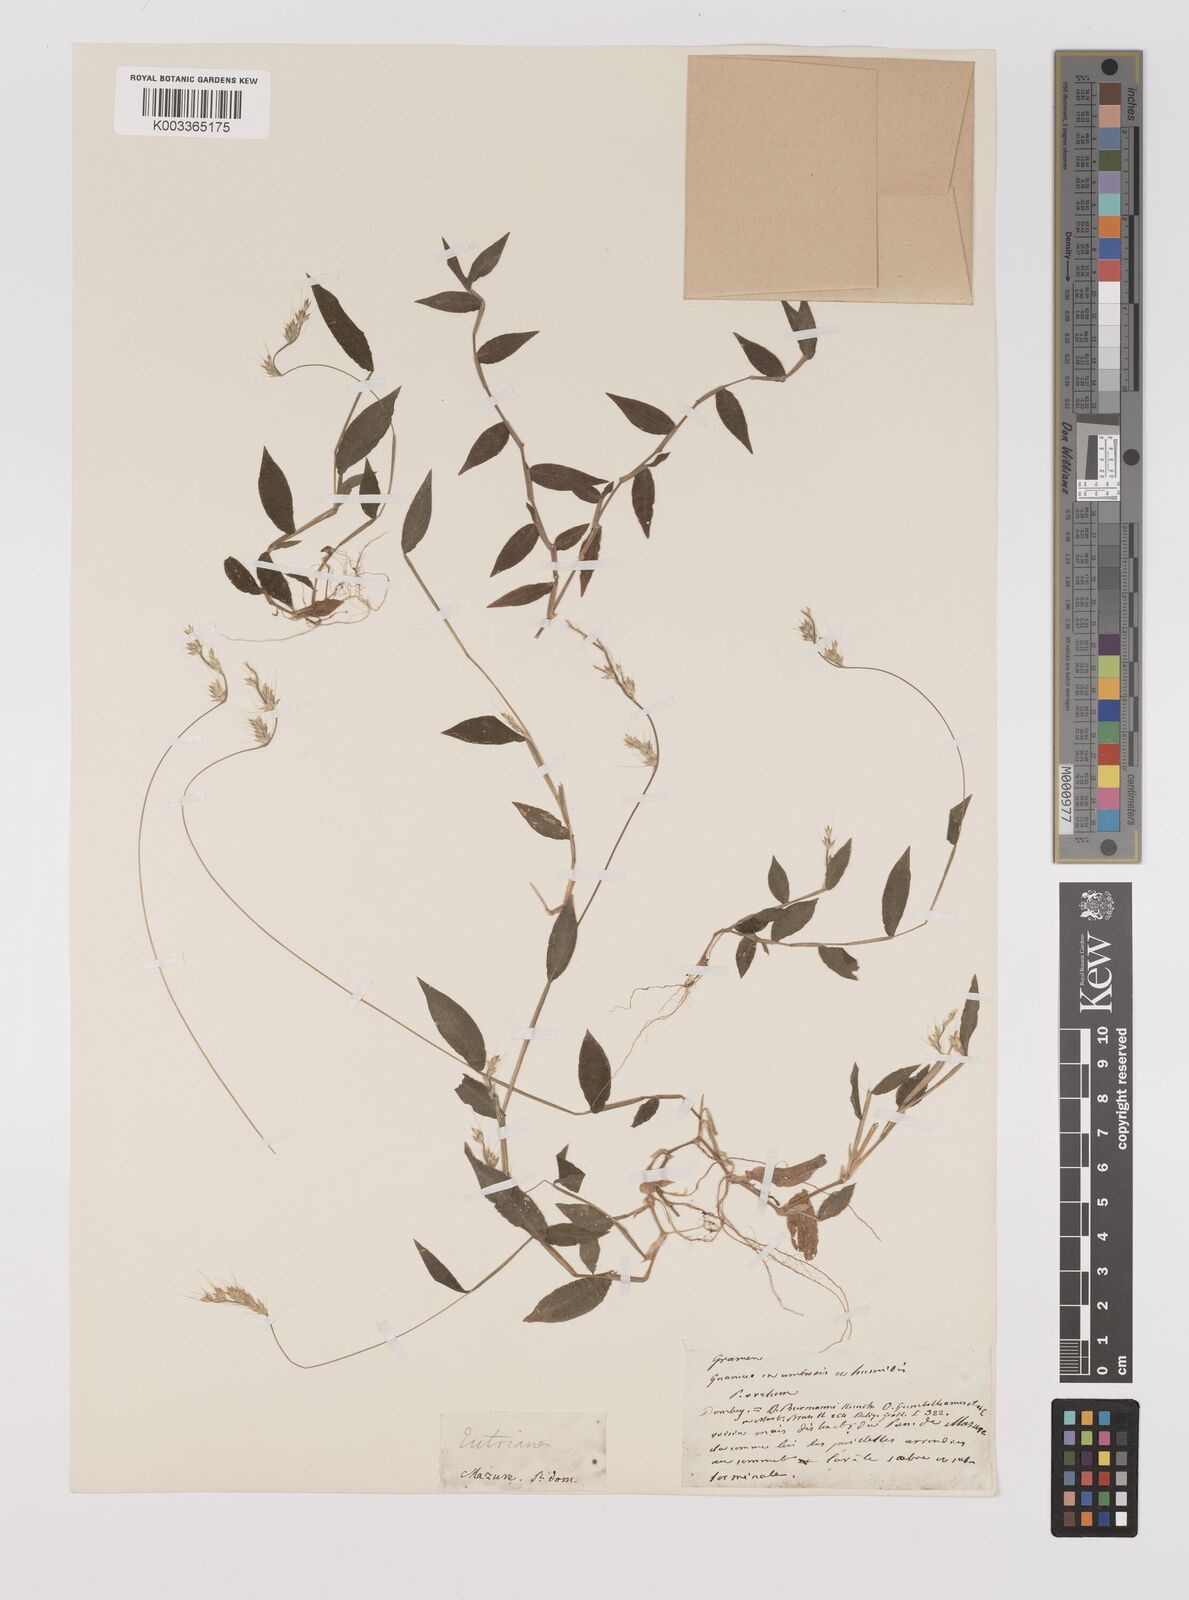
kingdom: Plantae
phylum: Tracheophyta
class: Liliopsida
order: Poales
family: Poaceae
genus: Oplismenus
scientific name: Oplismenus burmanni
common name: Burmann's basketgrass
